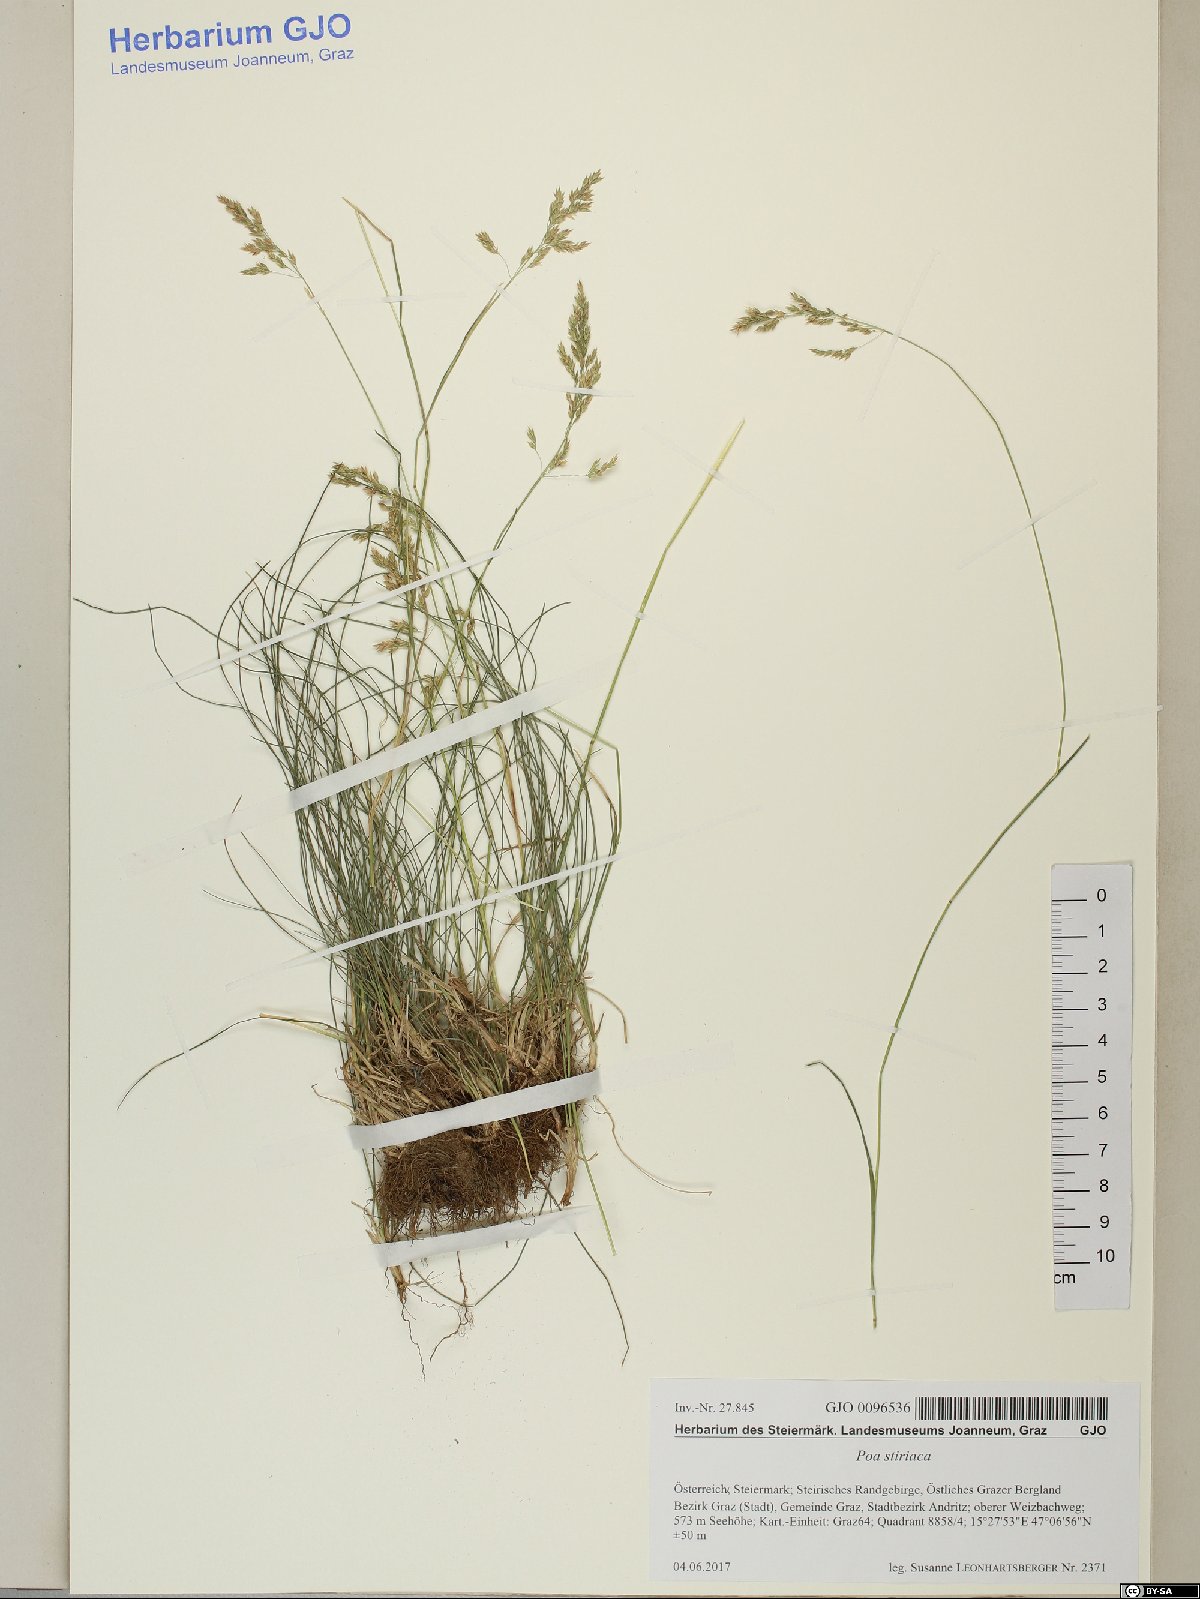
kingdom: Plantae
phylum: Tracheophyta
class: Liliopsida
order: Poales
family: Poaceae
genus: Poa
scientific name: Poa stiriaca
